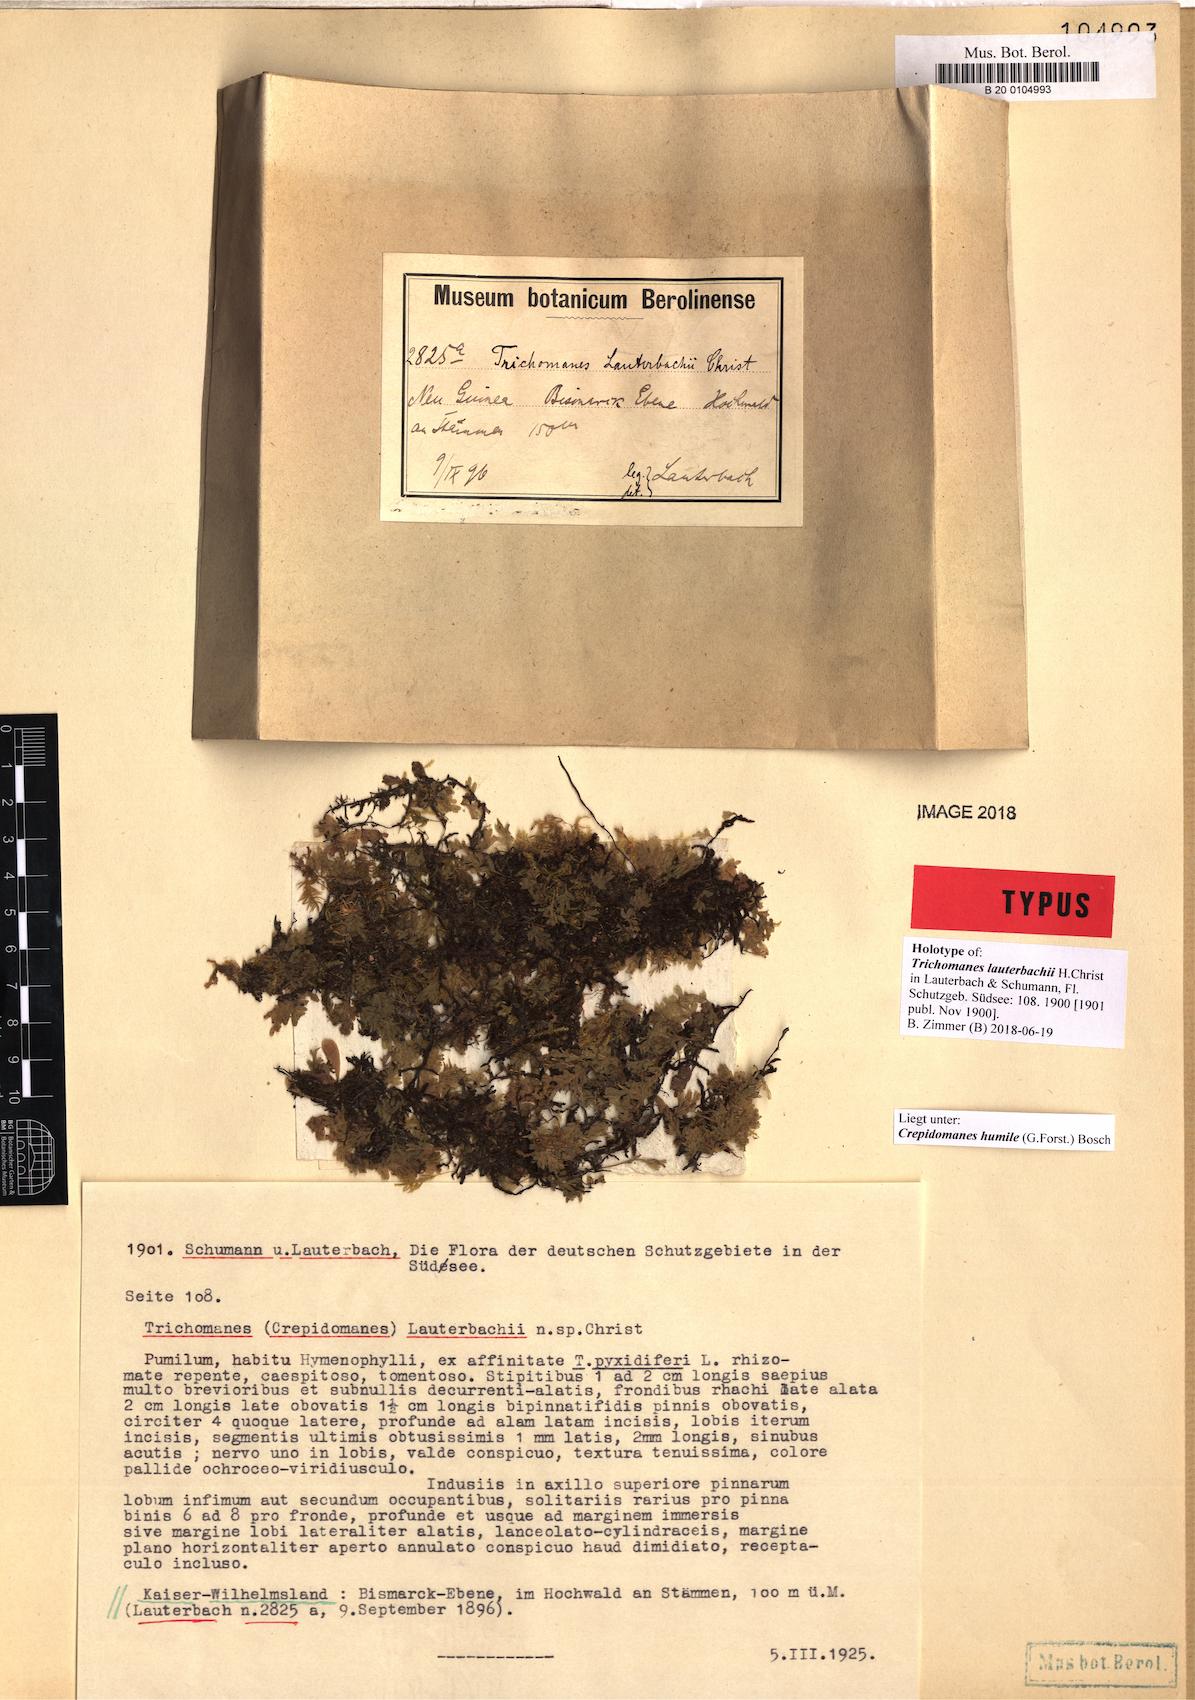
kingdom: Plantae
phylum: Tracheophyta
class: Polypodiopsida
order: Hymenophyllales
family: Hymenophyllaceae
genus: Crepidomanes
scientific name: Crepidomanes humile
